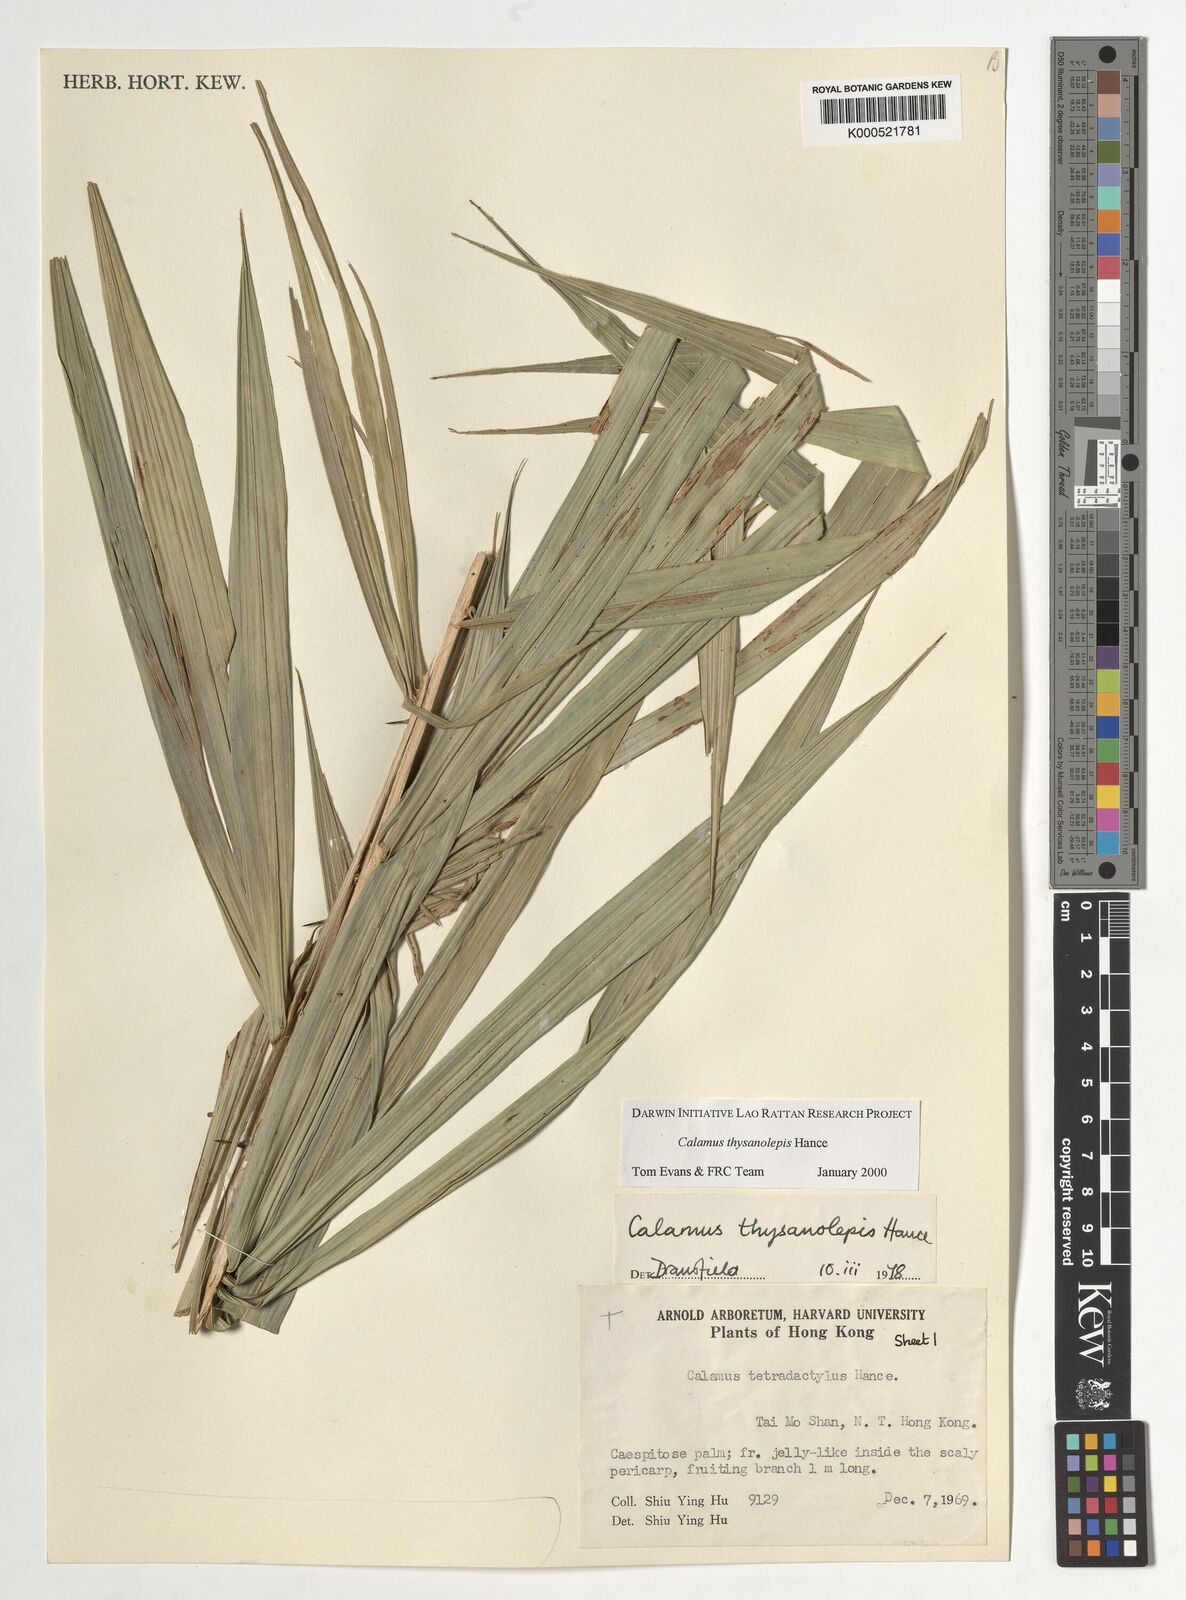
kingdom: Plantae
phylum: Tracheophyta
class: Liliopsida
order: Arecales
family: Arecaceae
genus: Calamus
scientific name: Calamus thysanolepis
